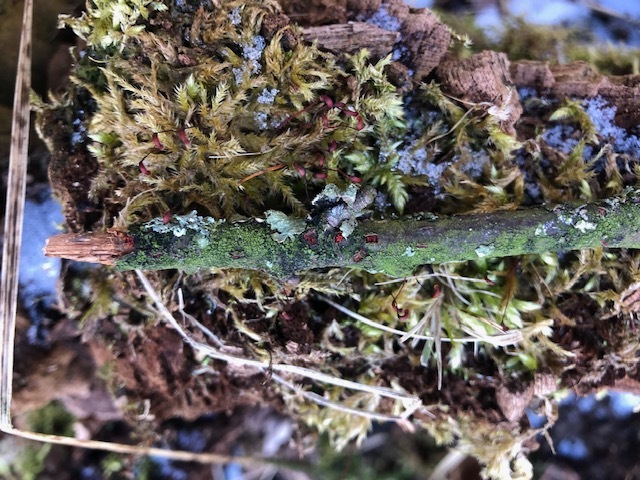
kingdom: Fungi
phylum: Ascomycota
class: Sordariomycetes
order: Hypocreales
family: Nectriaceae
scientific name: Nectriaceae
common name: cinnobersvampfamilien
